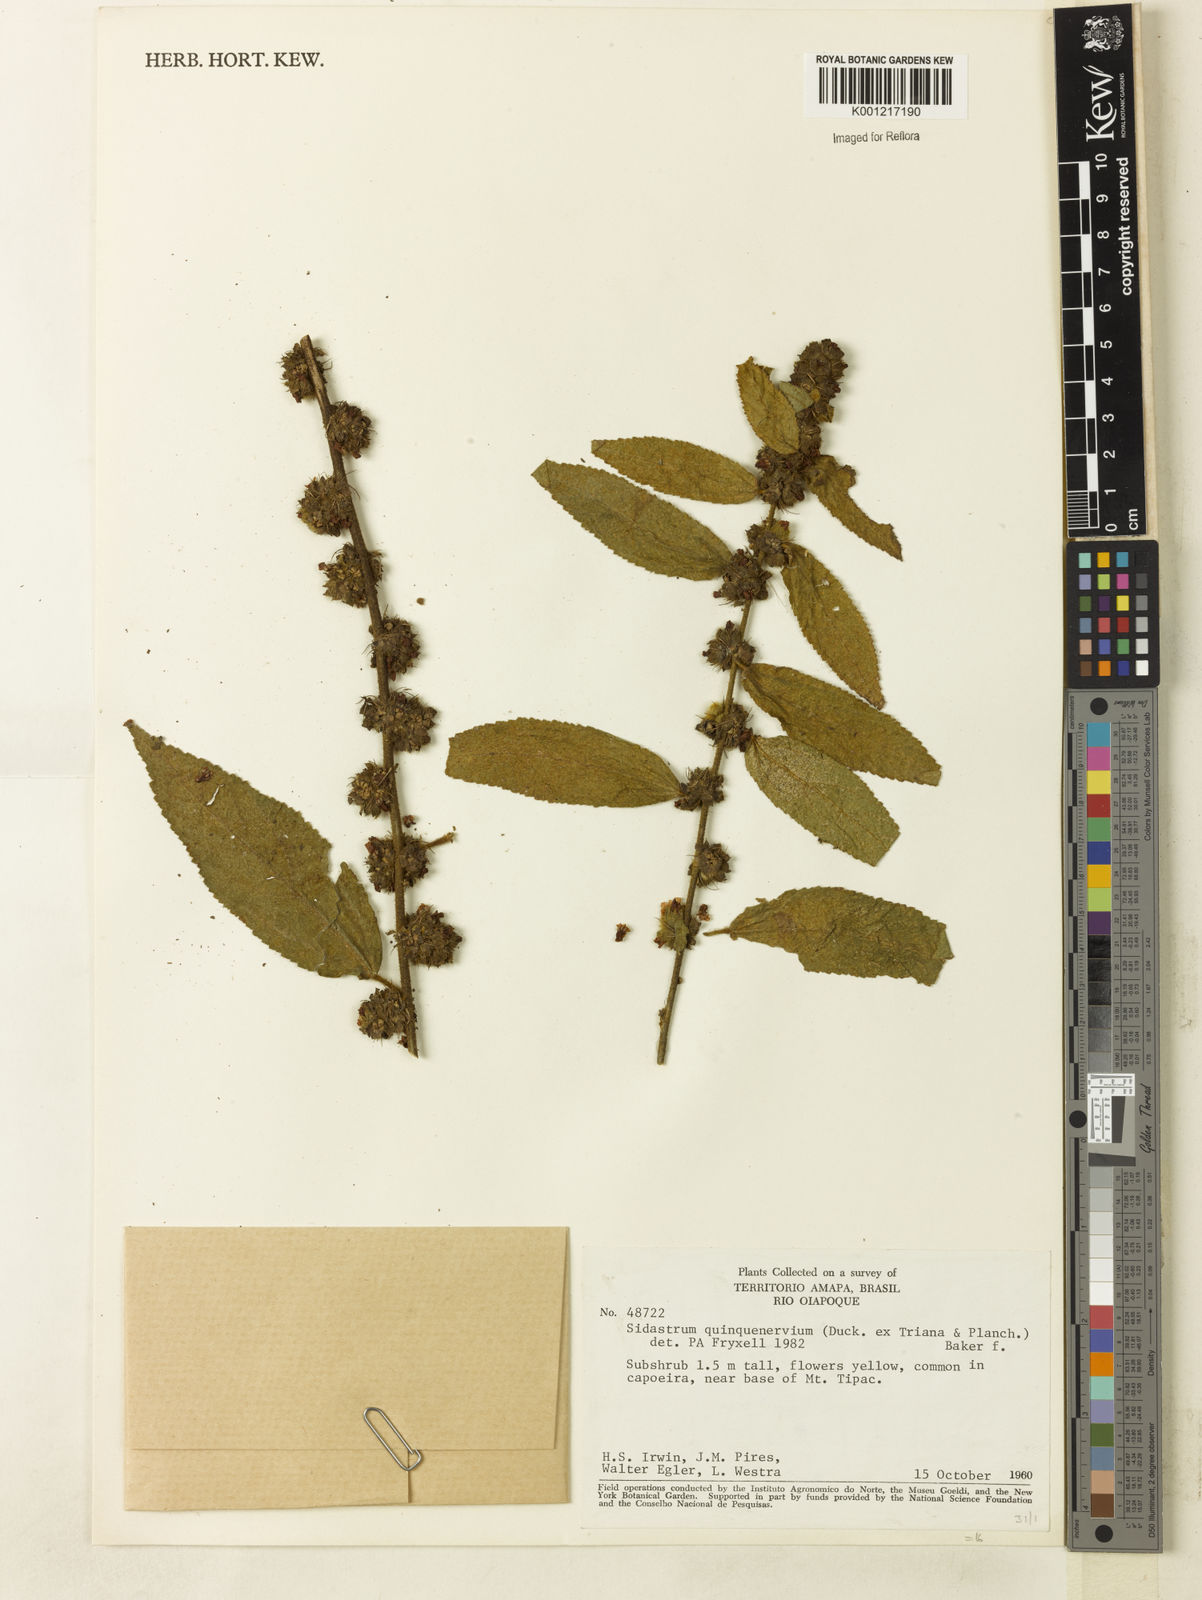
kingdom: Plantae
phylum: Tracheophyta
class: Magnoliopsida
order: Malvales
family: Malvaceae
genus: Sidastrum
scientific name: Sidastrum quinquenervium
